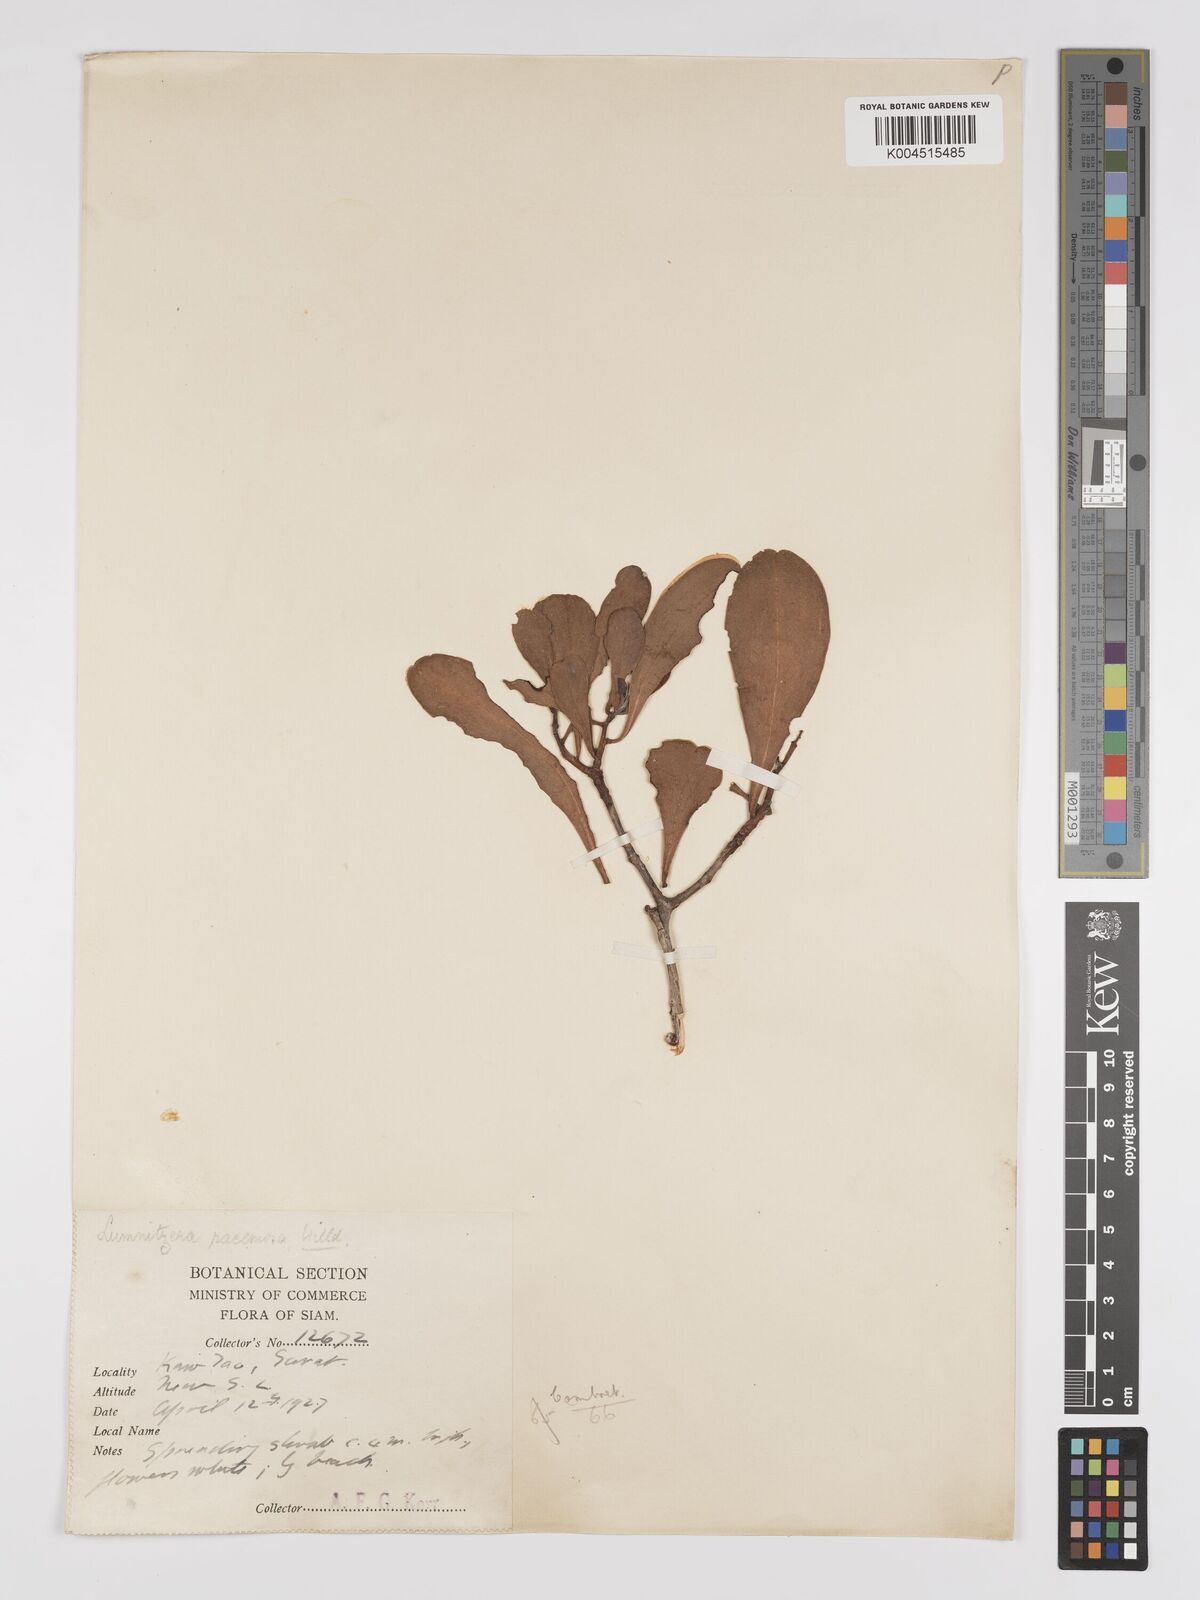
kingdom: Plantae
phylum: Tracheophyta
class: Magnoliopsida
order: Myrtales
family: Combretaceae
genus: Lumnitzera
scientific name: Lumnitzera racemosa
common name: White-flowered black mangrove
